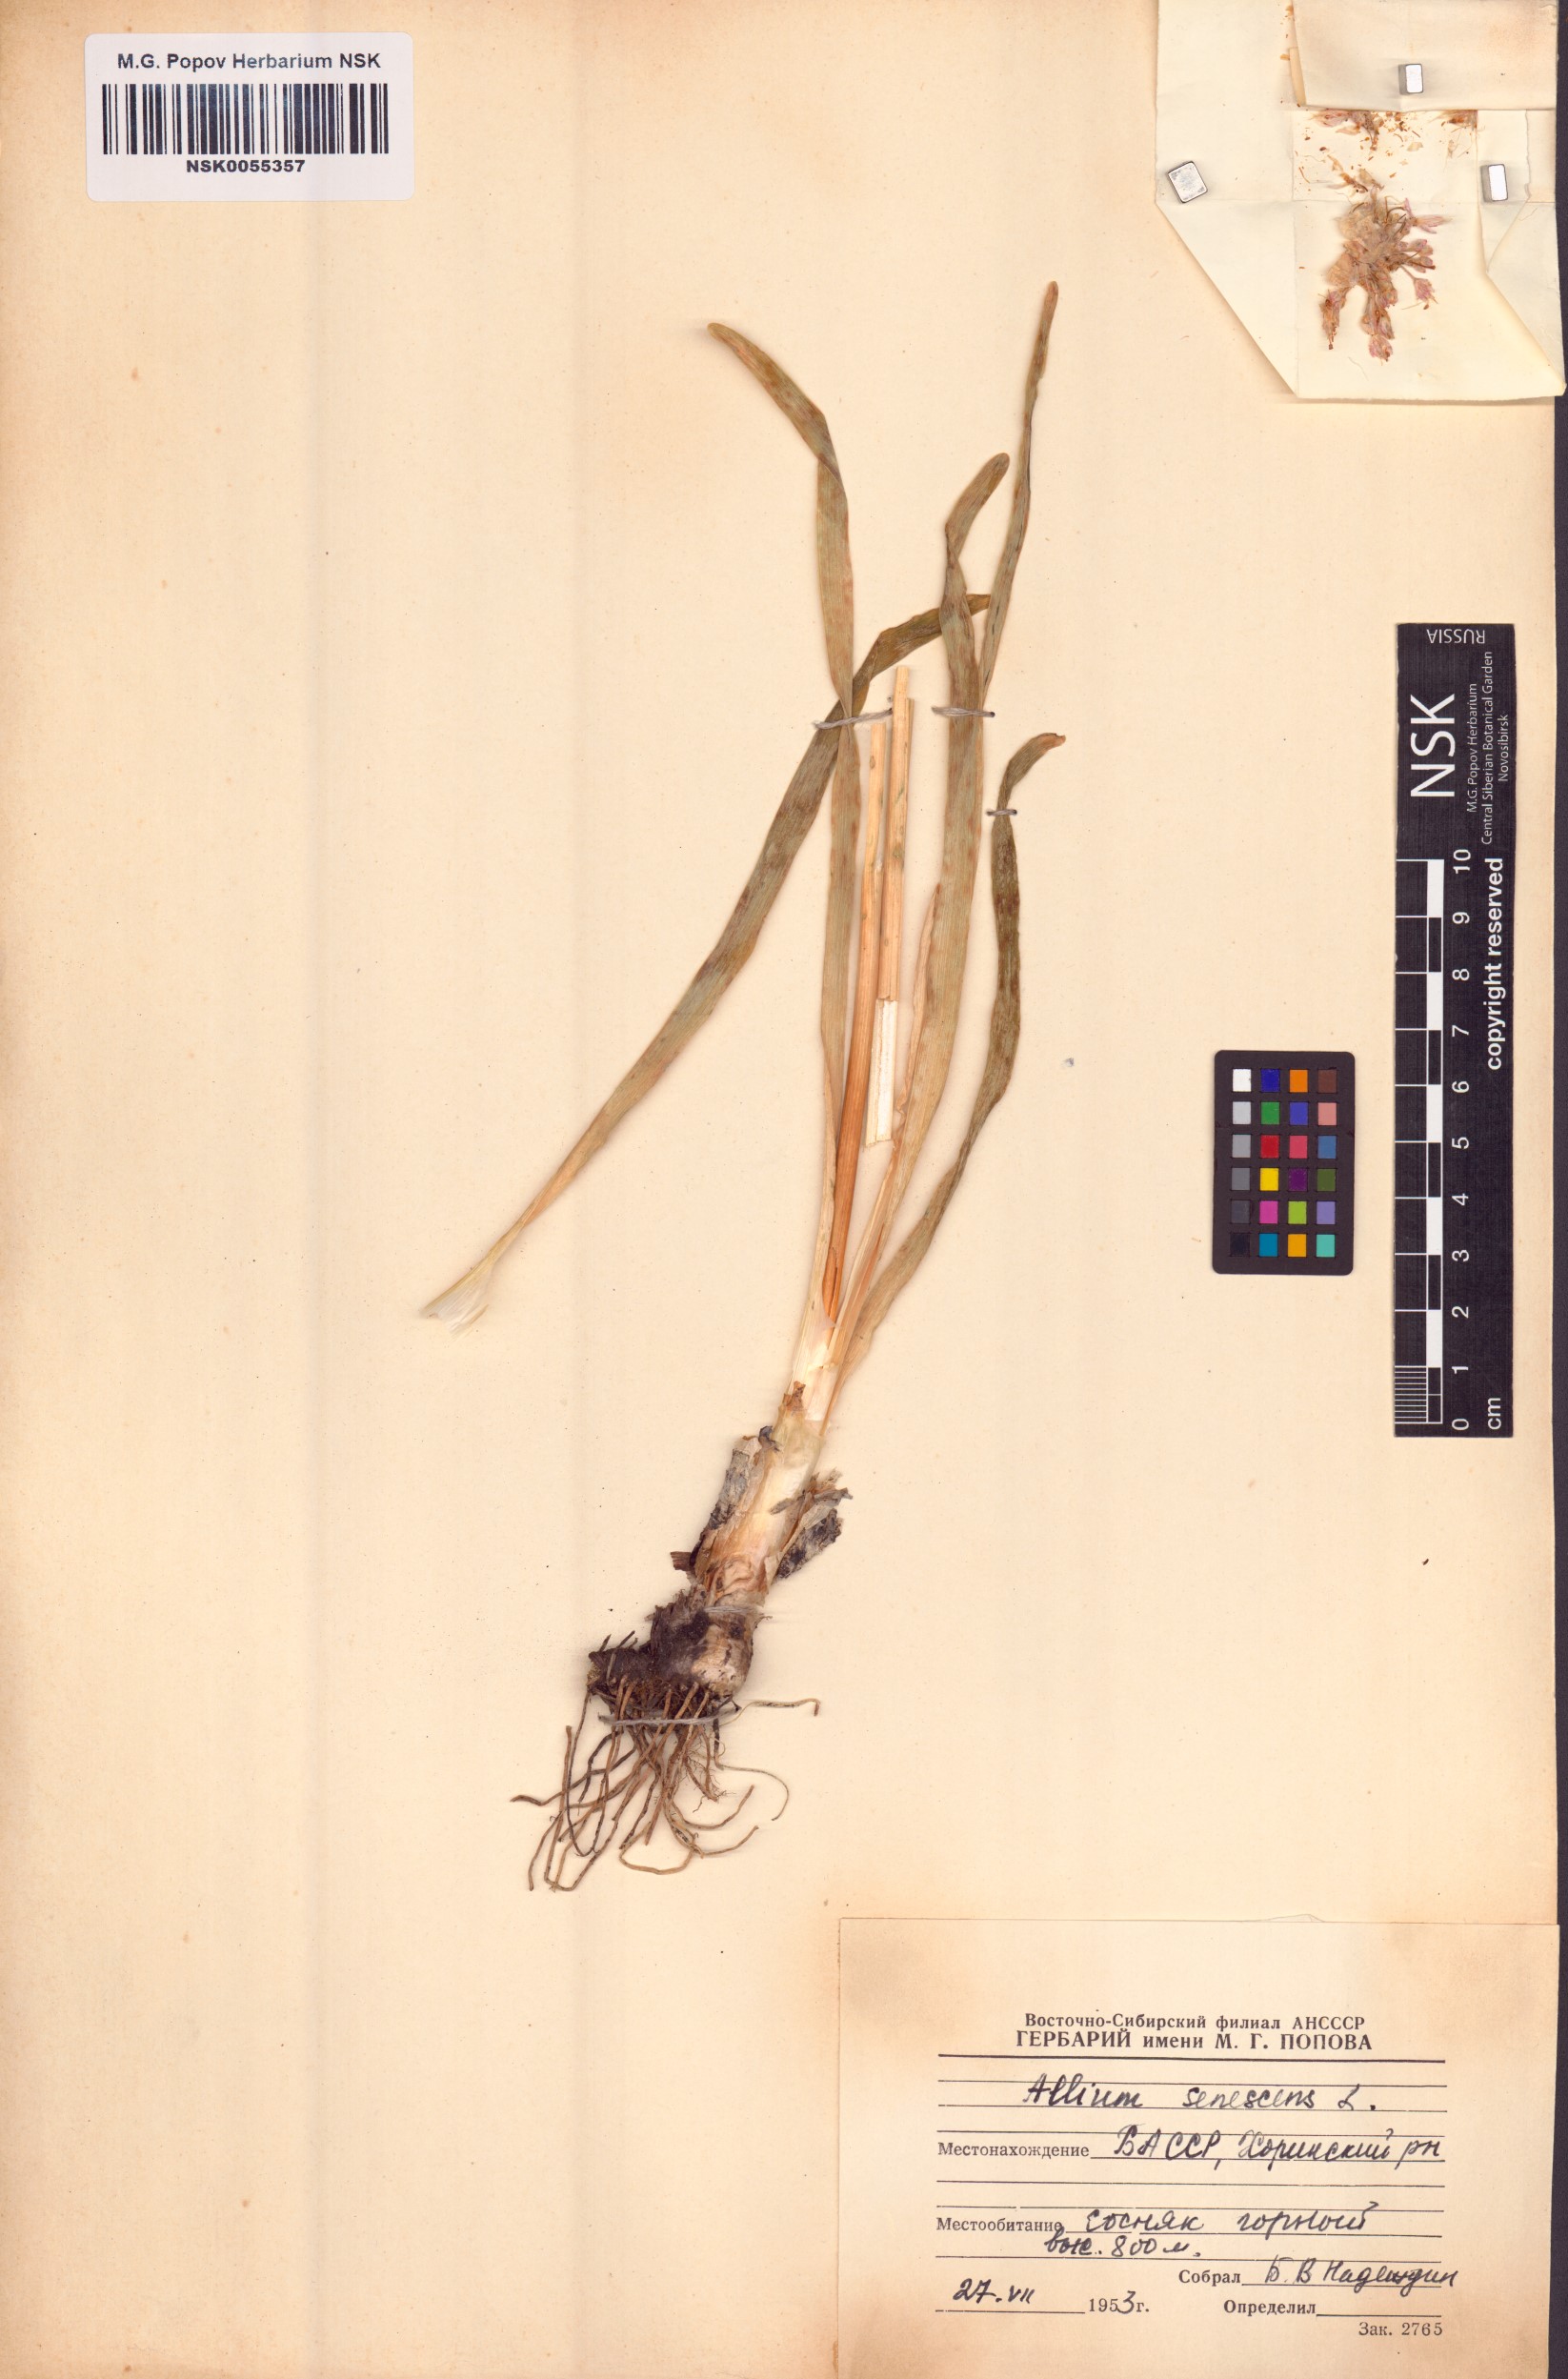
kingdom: Plantae
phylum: Tracheophyta
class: Liliopsida
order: Asparagales
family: Amaryllidaceae
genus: Allium
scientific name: Allium senescens
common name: German garlic
